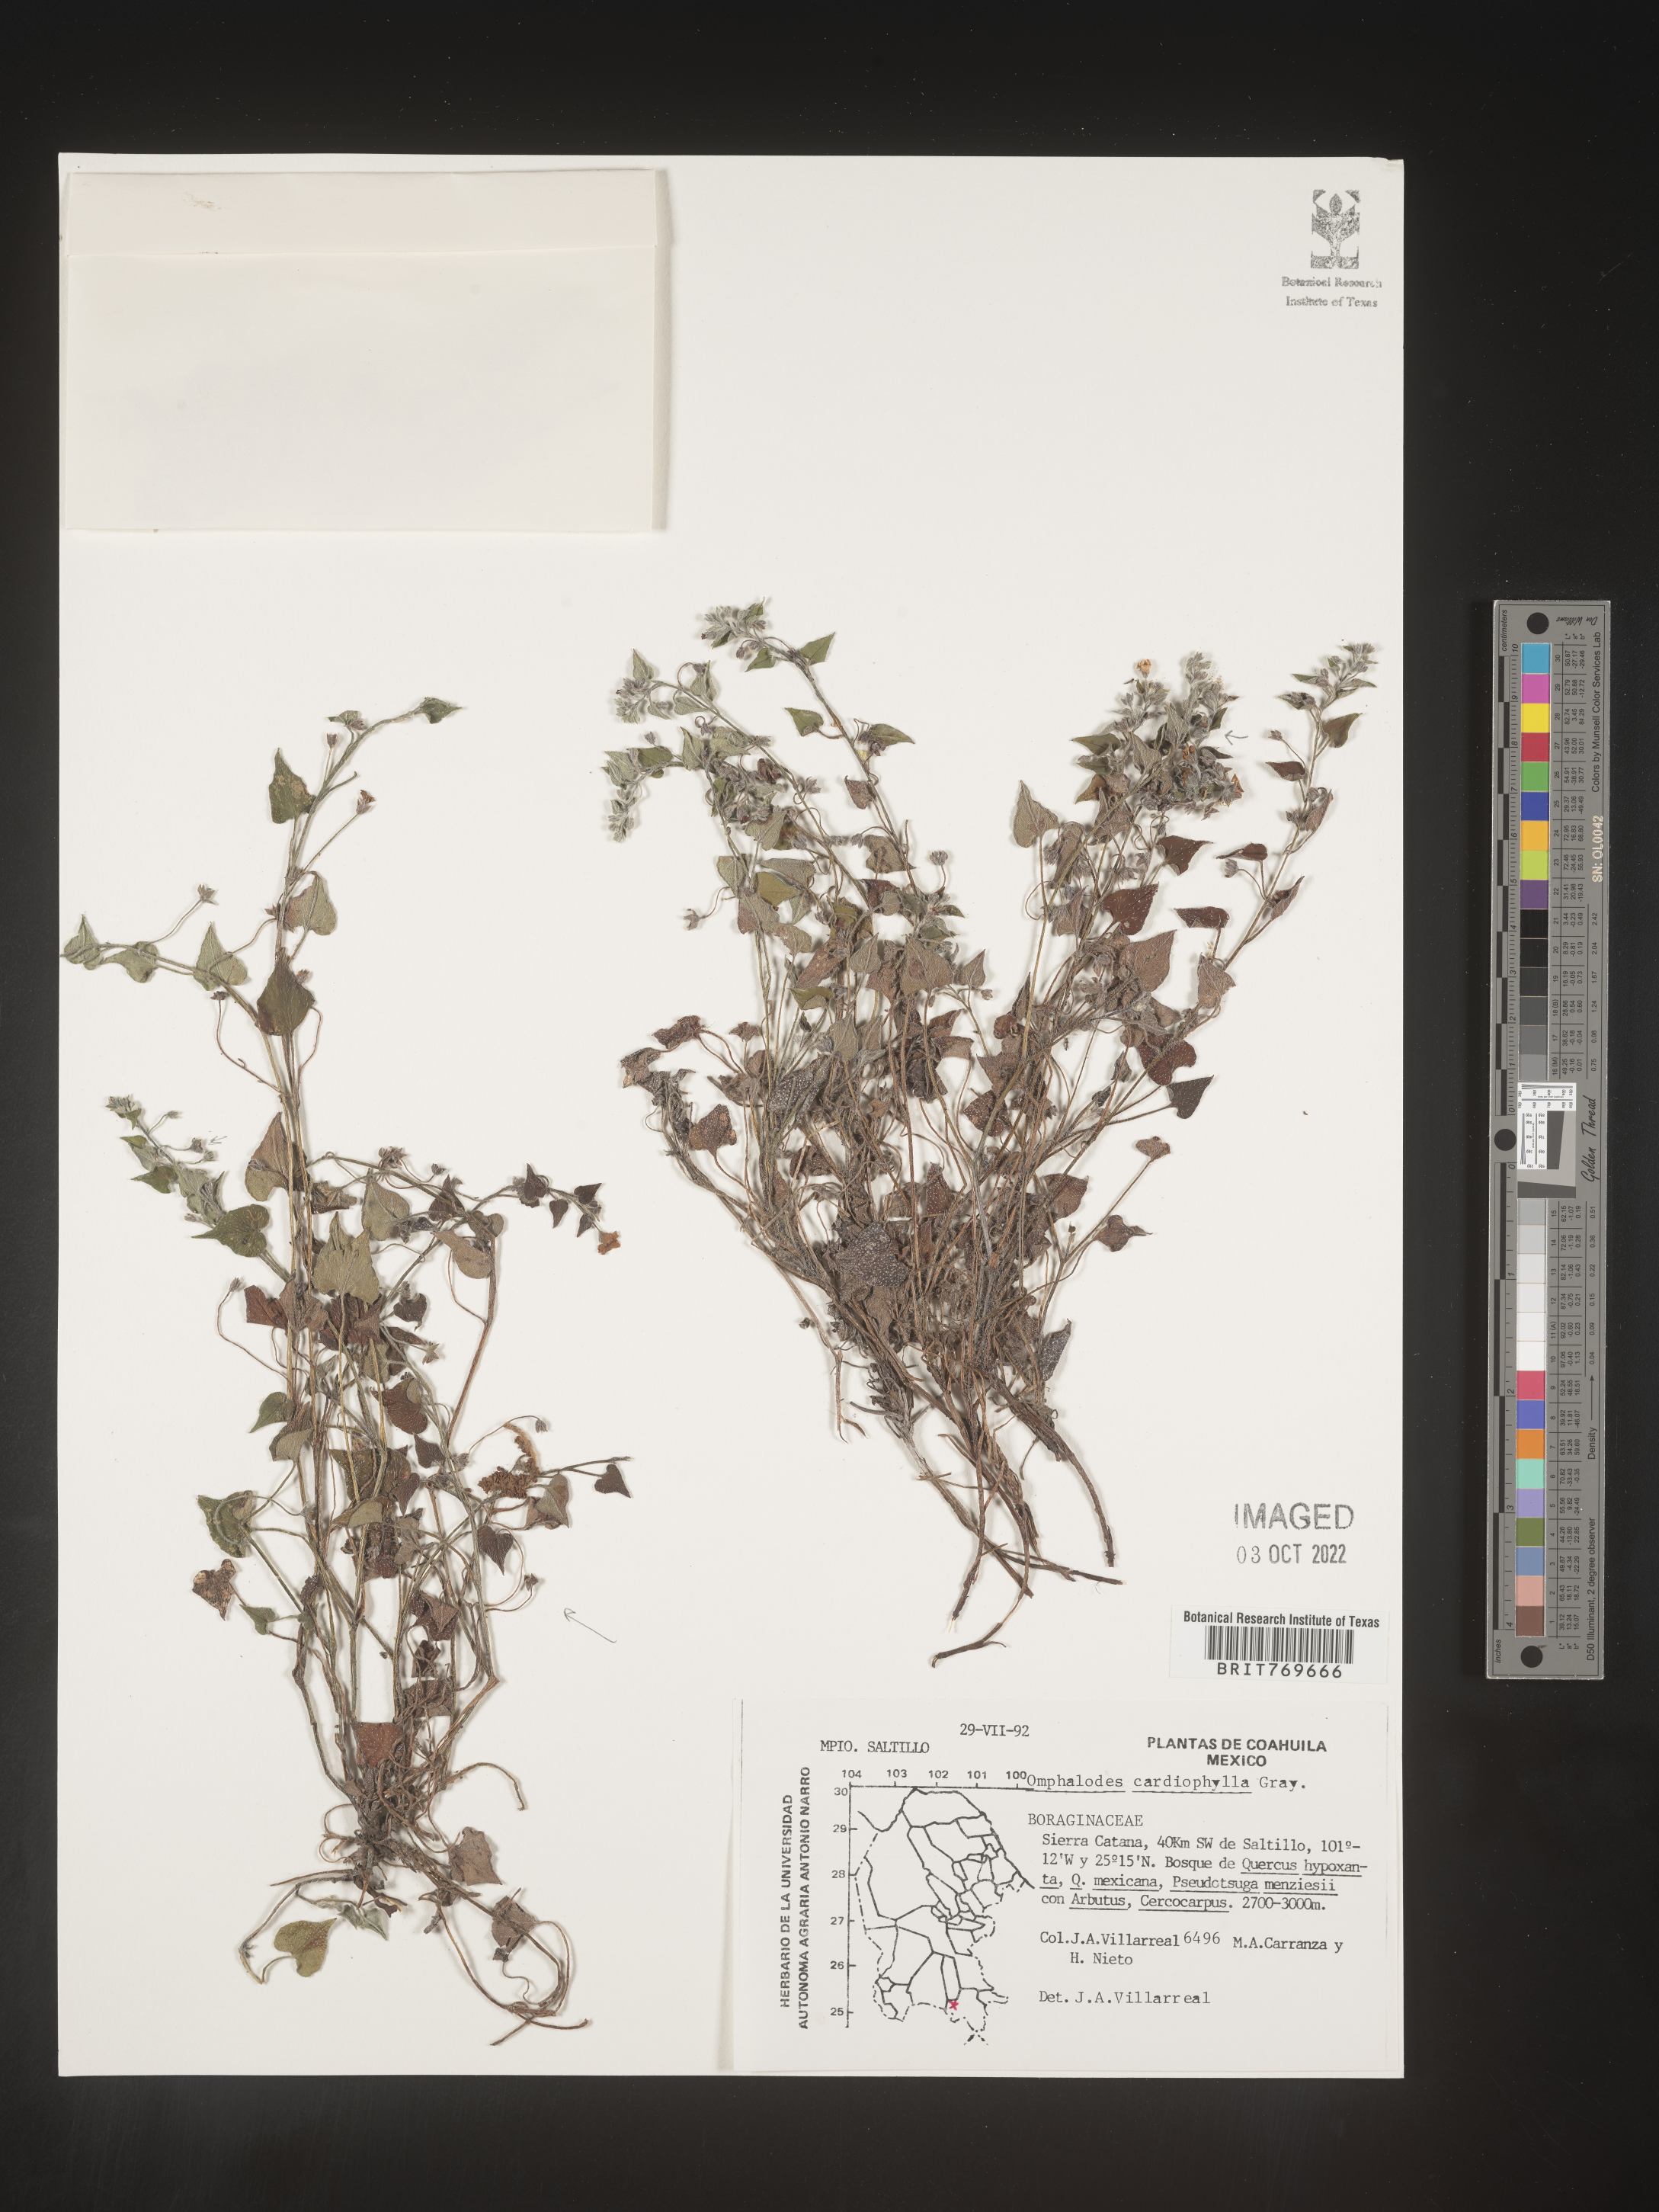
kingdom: Plantae
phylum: Tracheophyta
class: Magnoliopsida
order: Boraginales
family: Boraginaceae
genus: Omphalodes
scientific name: Omphalodes
